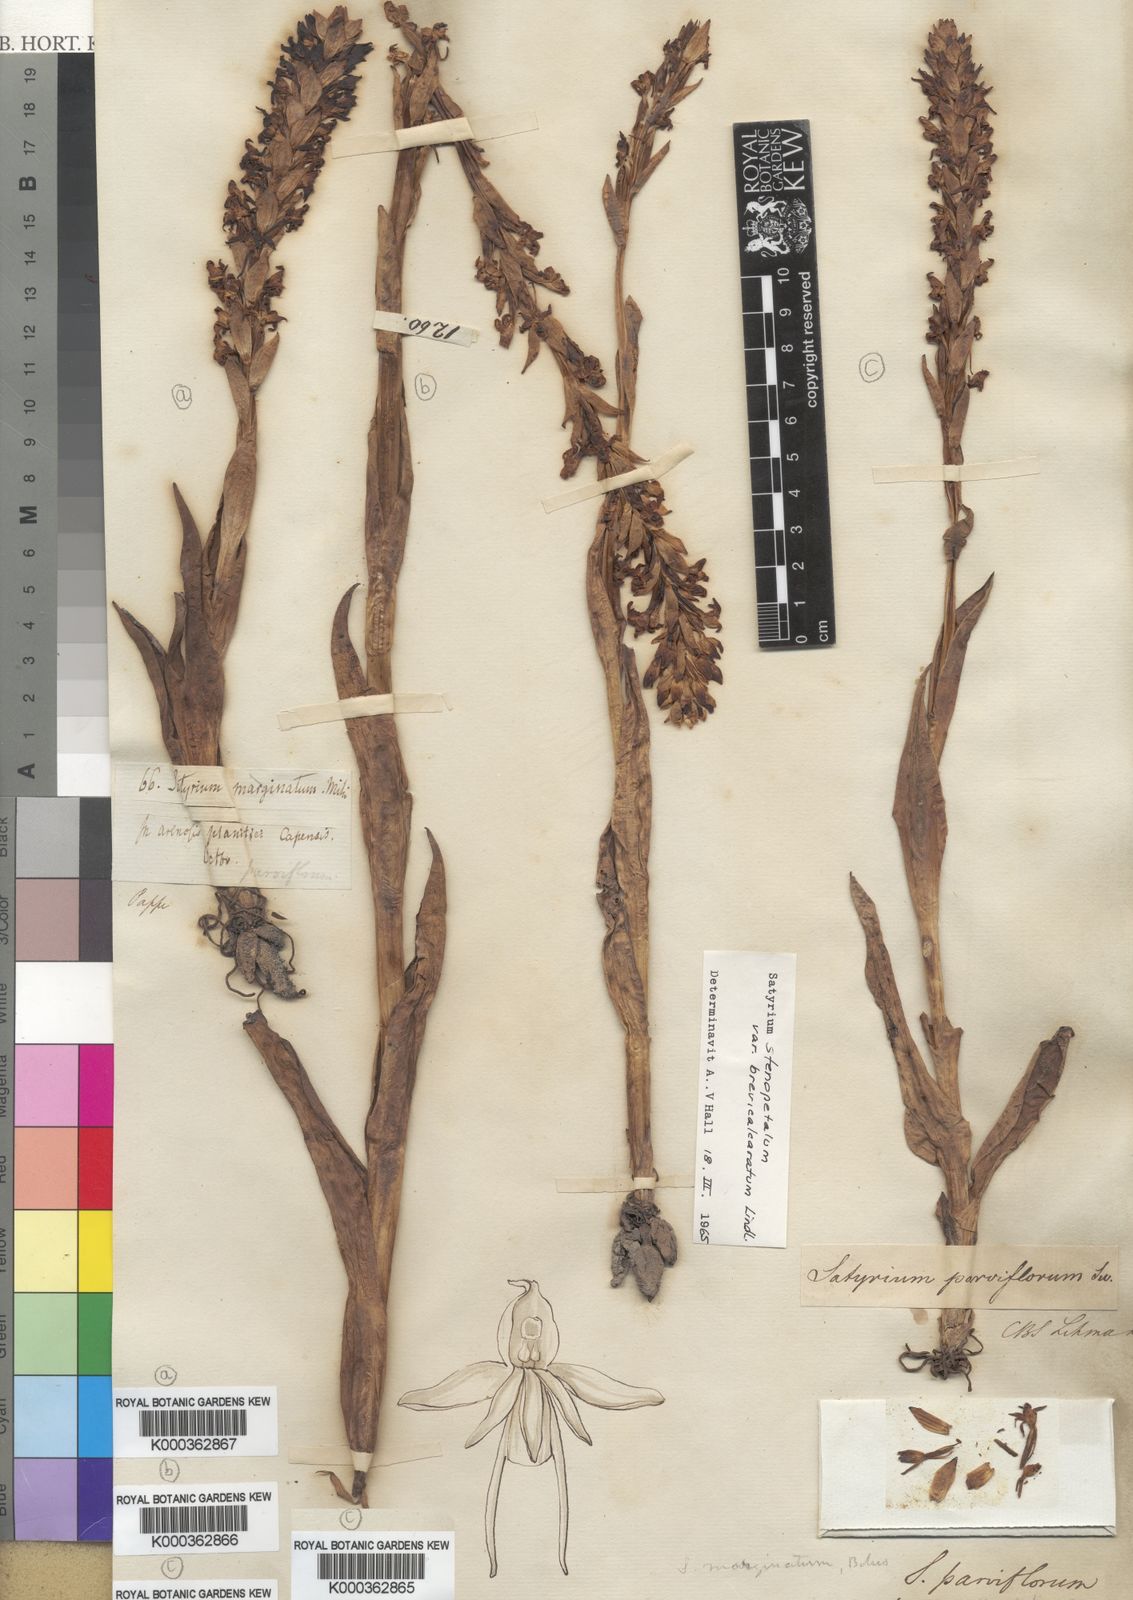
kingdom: Plantae
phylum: Tracheophyta
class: Liliopsida
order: Asparagales
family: Orchidaceae
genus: Satyrium
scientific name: Satyrium stenopetalum
